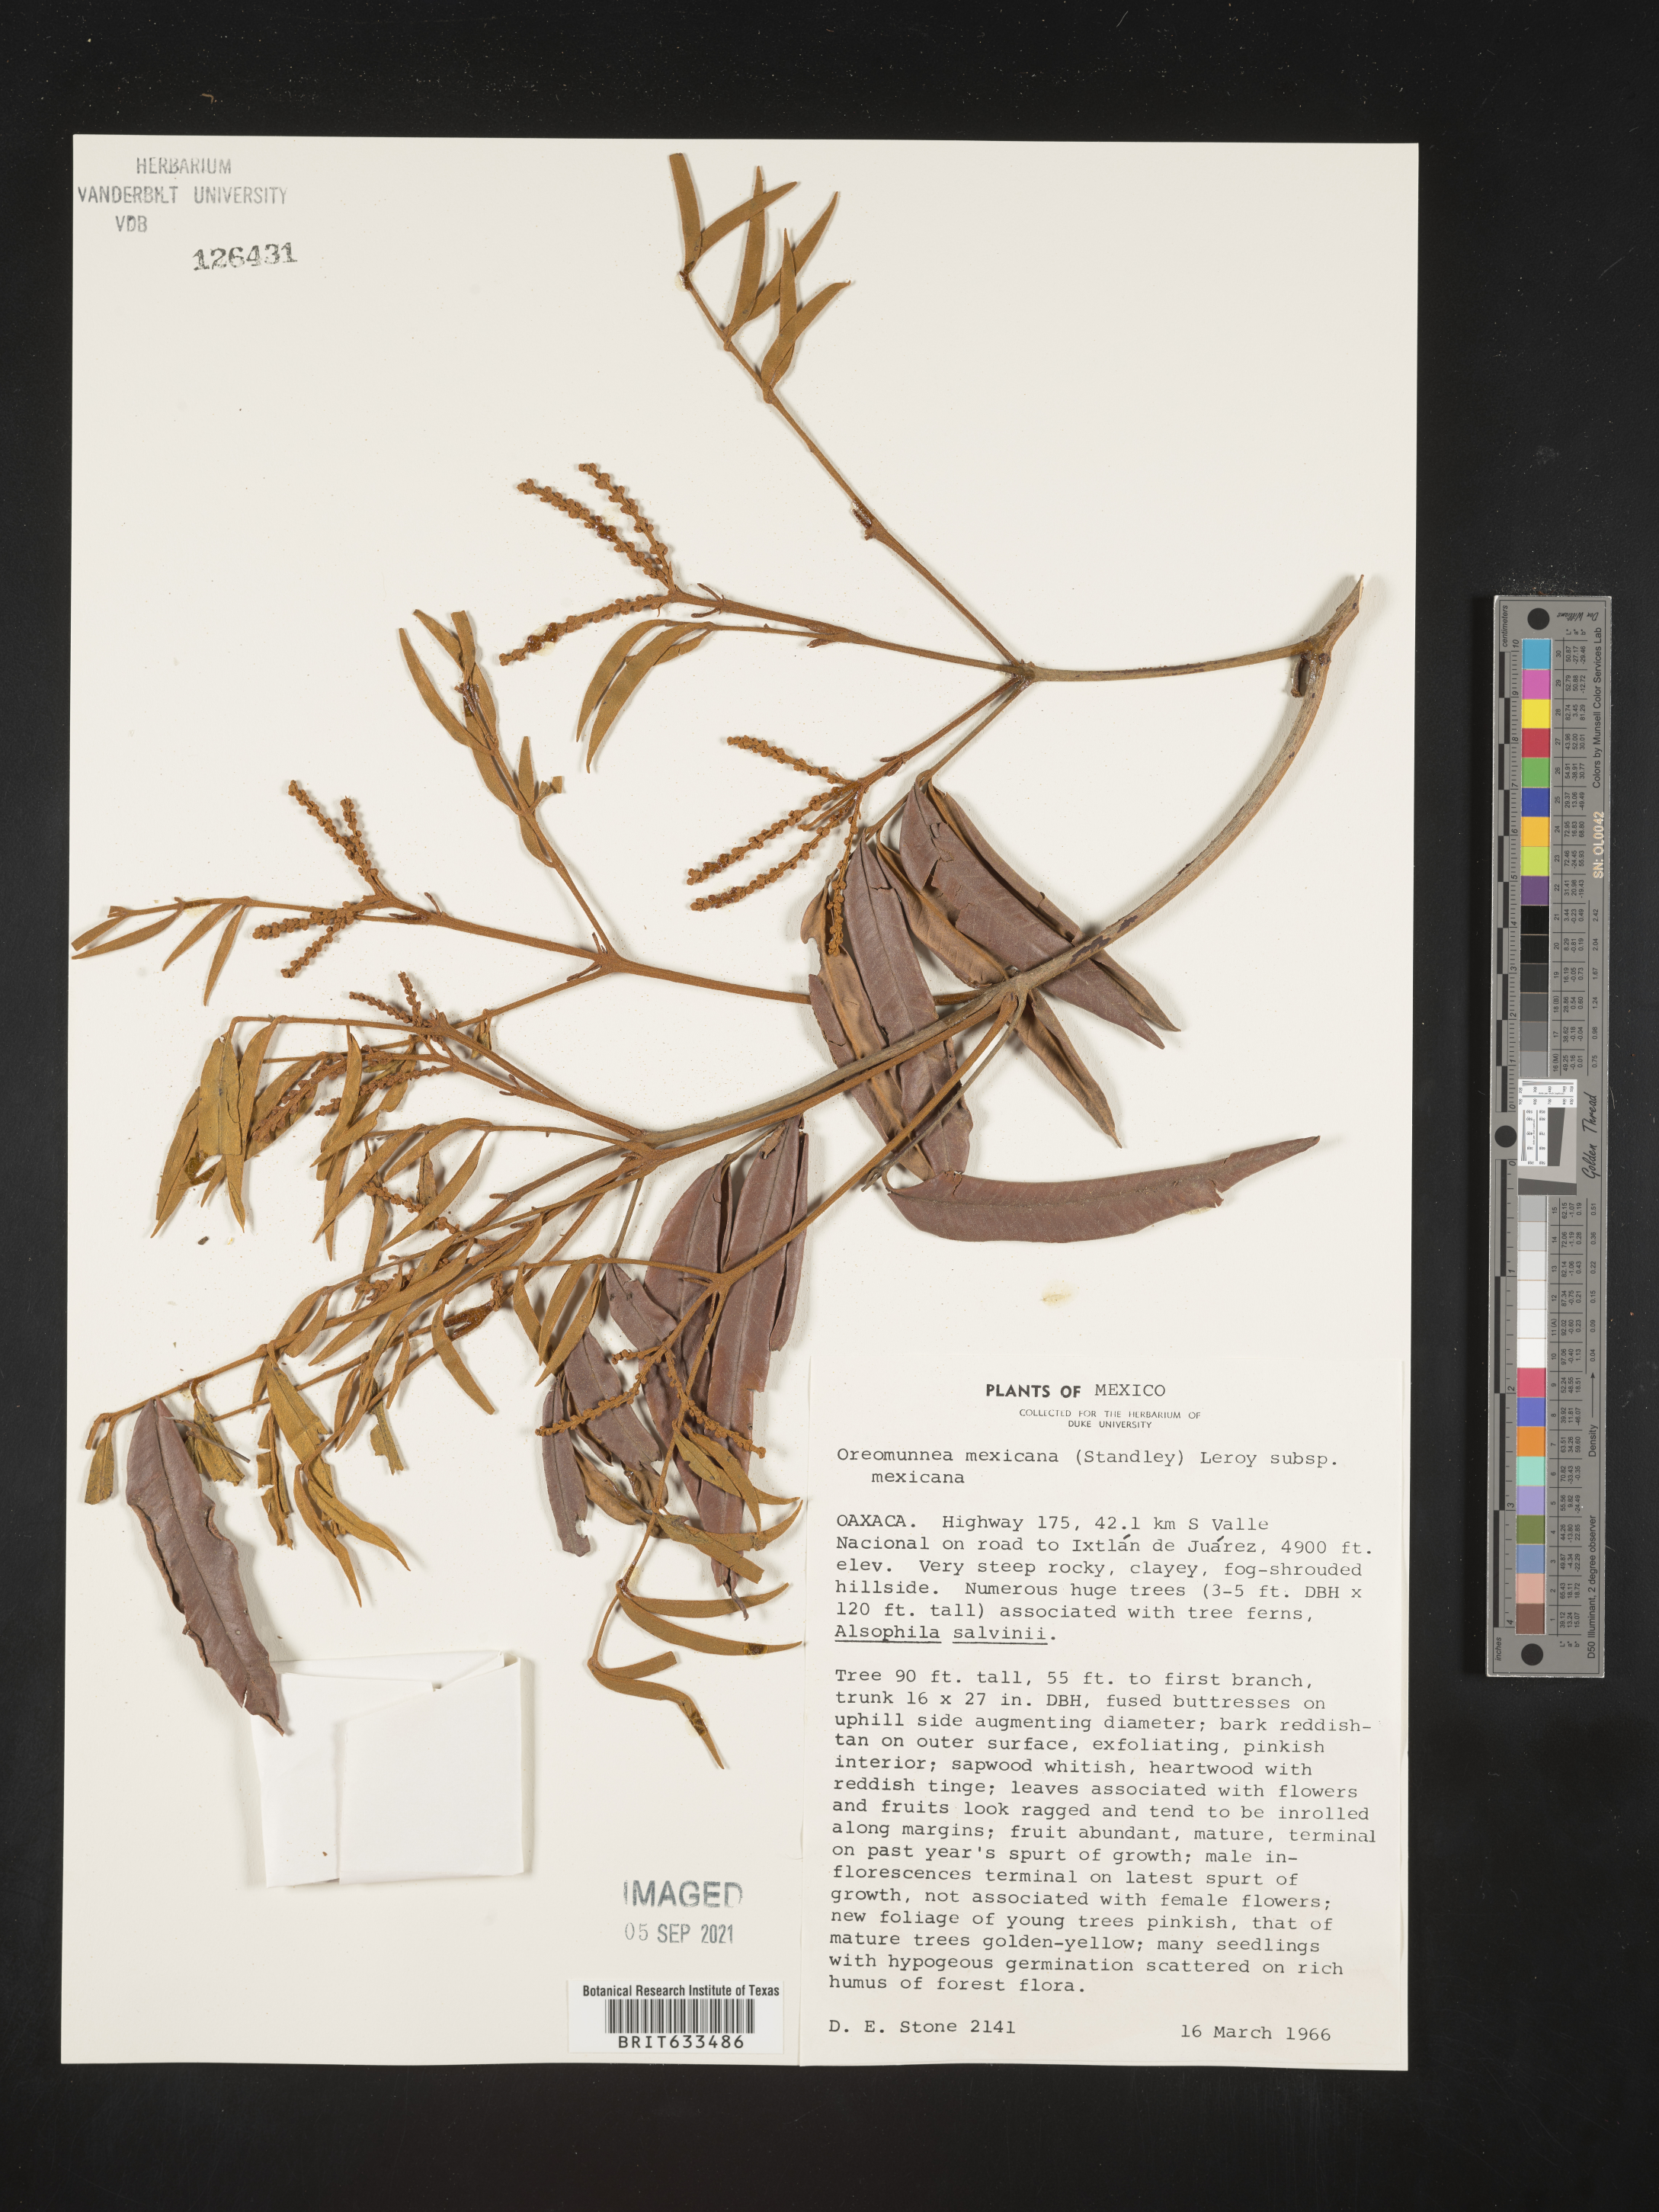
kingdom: Plantae
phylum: Tracheophyta
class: Magnoliopsida
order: Fagales
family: Juglandaceae
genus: Oreomunnea
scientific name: Oreomunnea
